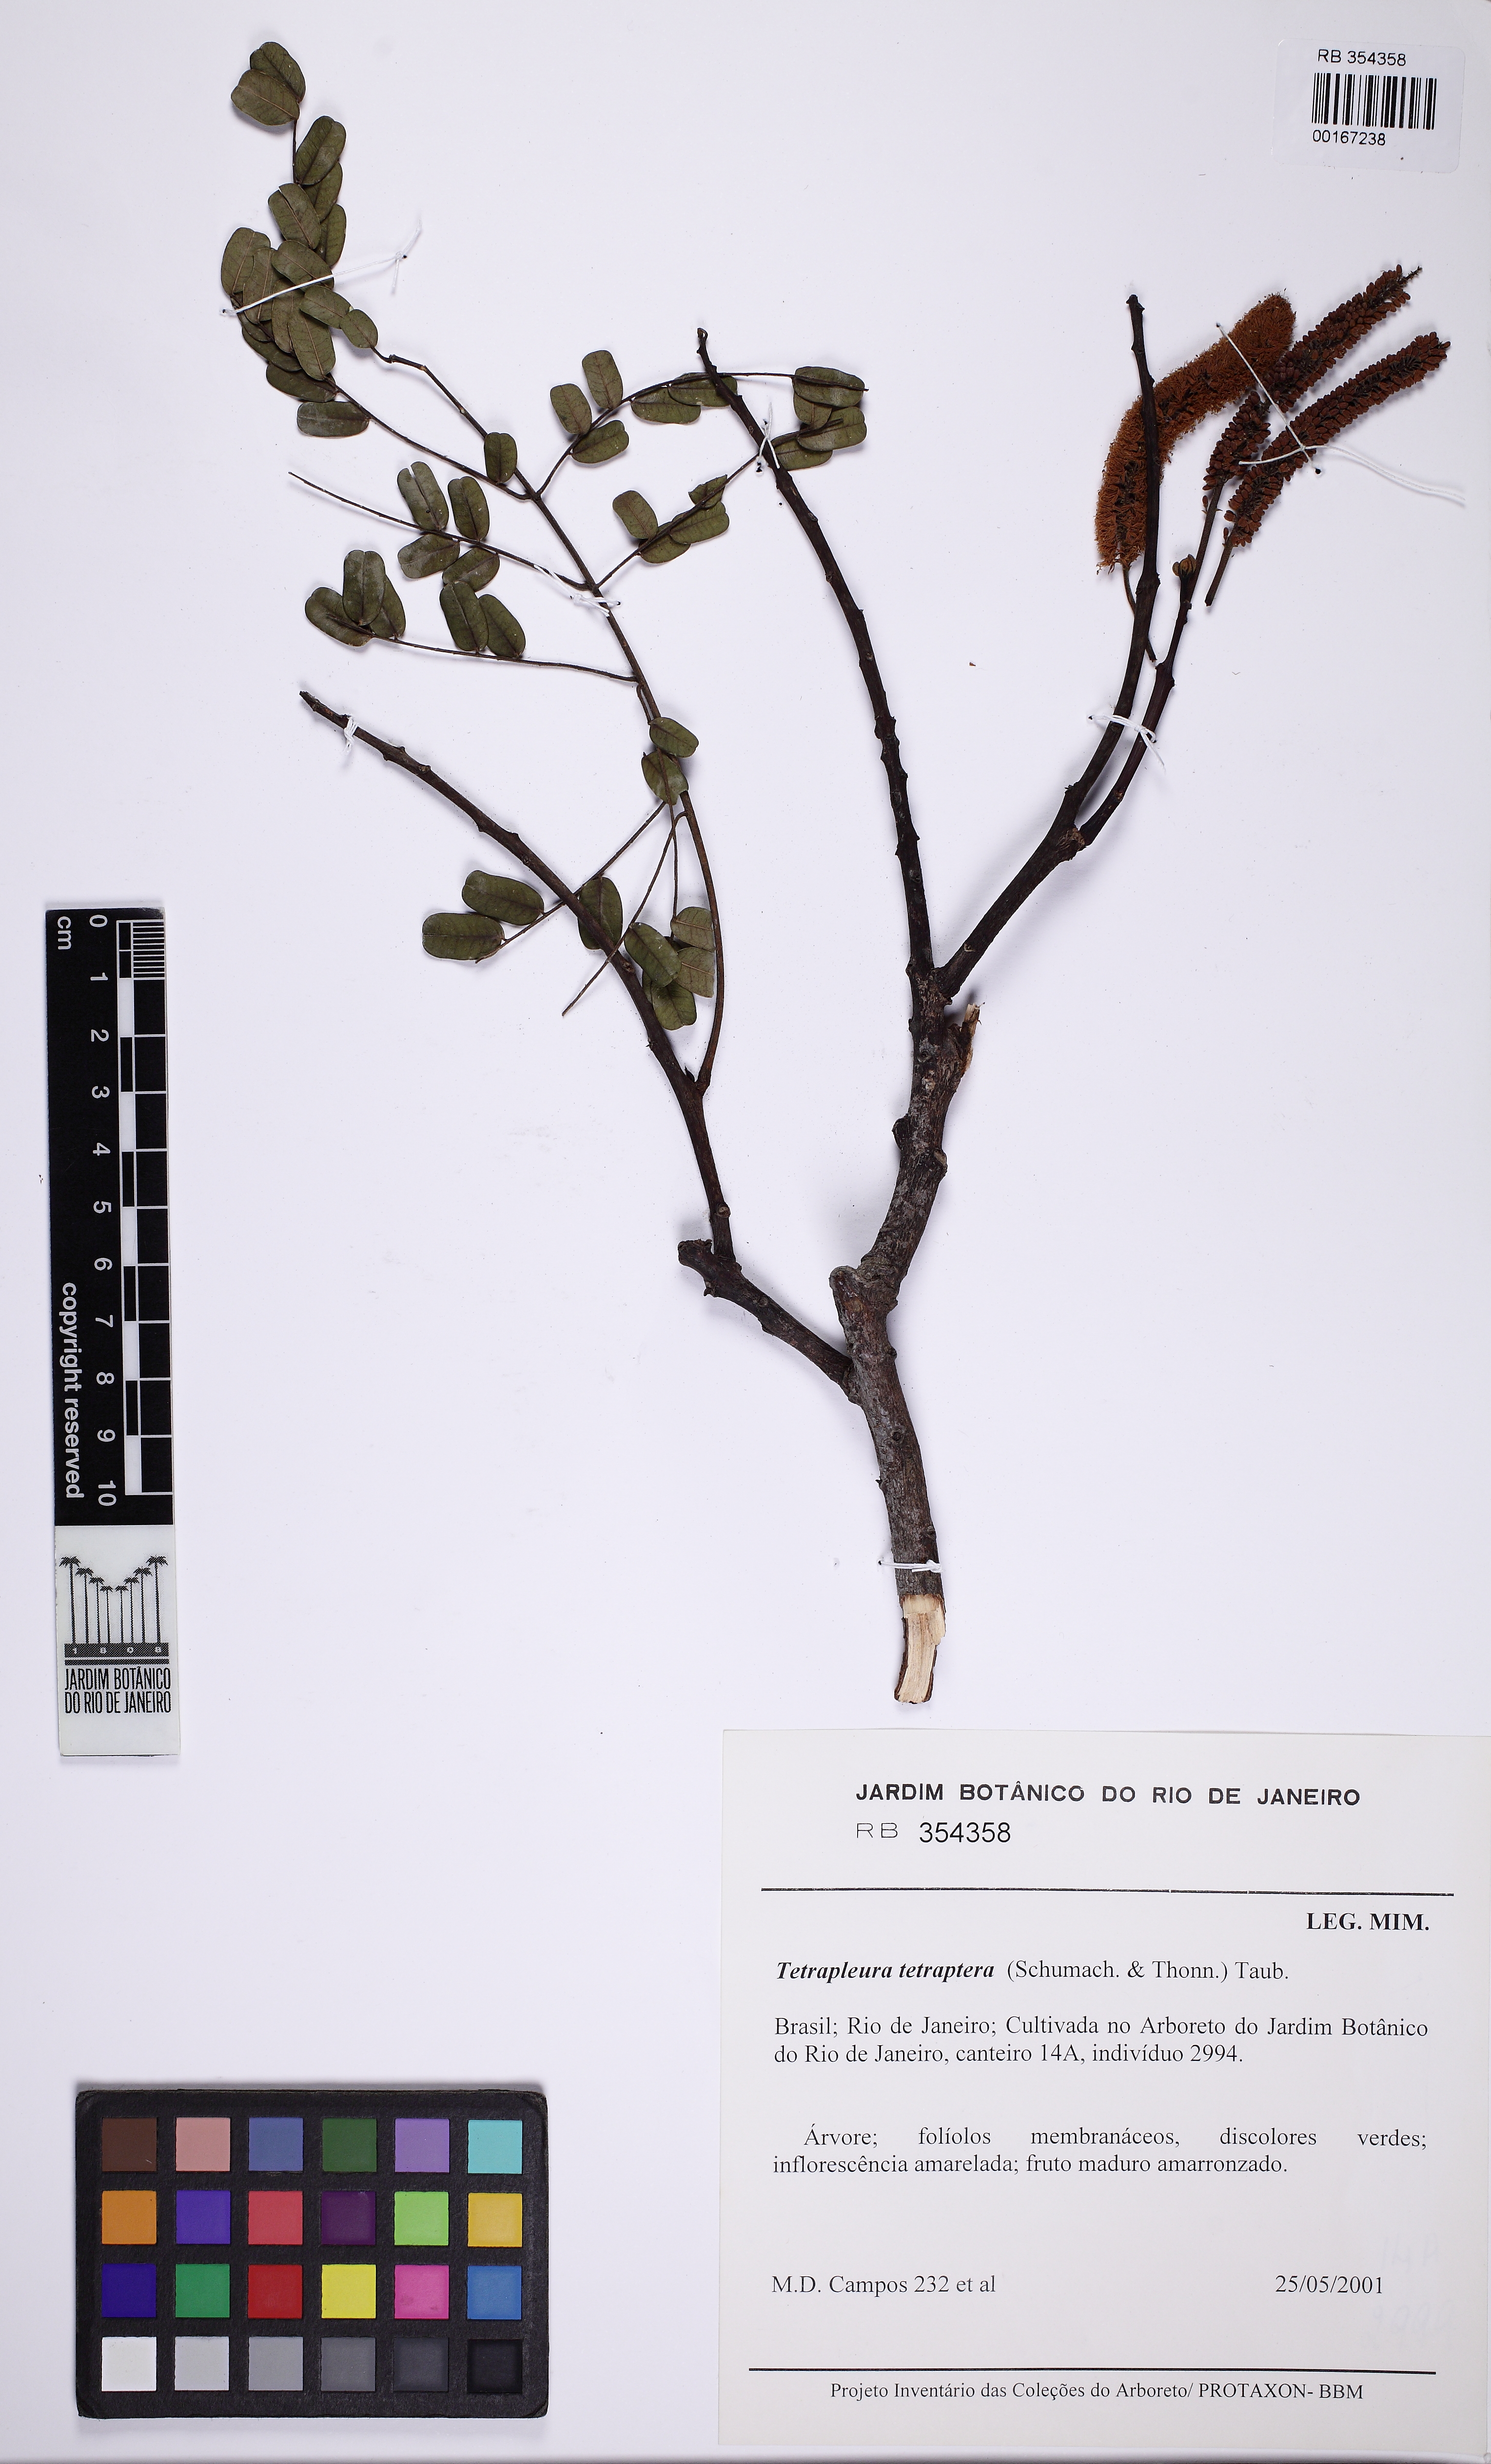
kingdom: Plantae
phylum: Tracheophyta
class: Magnoliopsida
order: Fabales
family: Fabaceae
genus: Tetrapleura
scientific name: Tetrapleura tetraptera
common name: Aridan
